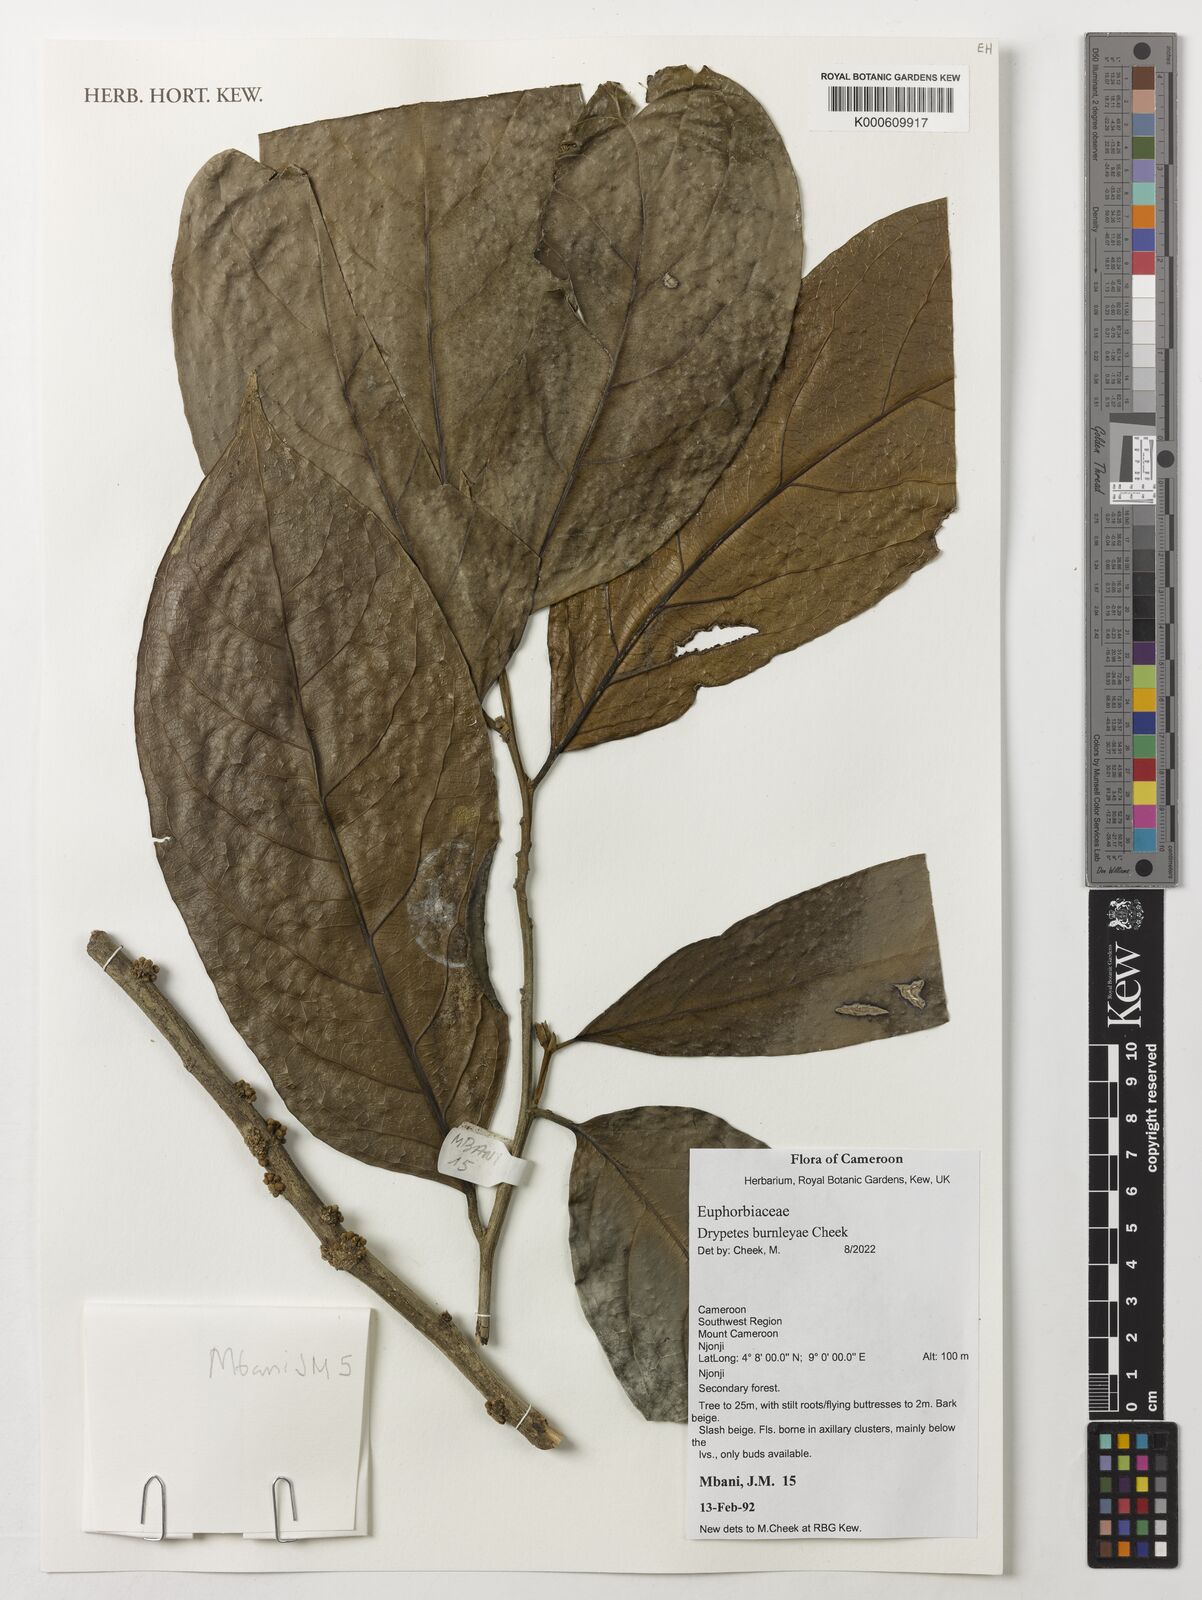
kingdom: Plantae
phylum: Tracheophyta
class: Magnoliopsida
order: Malpighiales
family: Euphorbiaceae
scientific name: Euphorbiaceae
